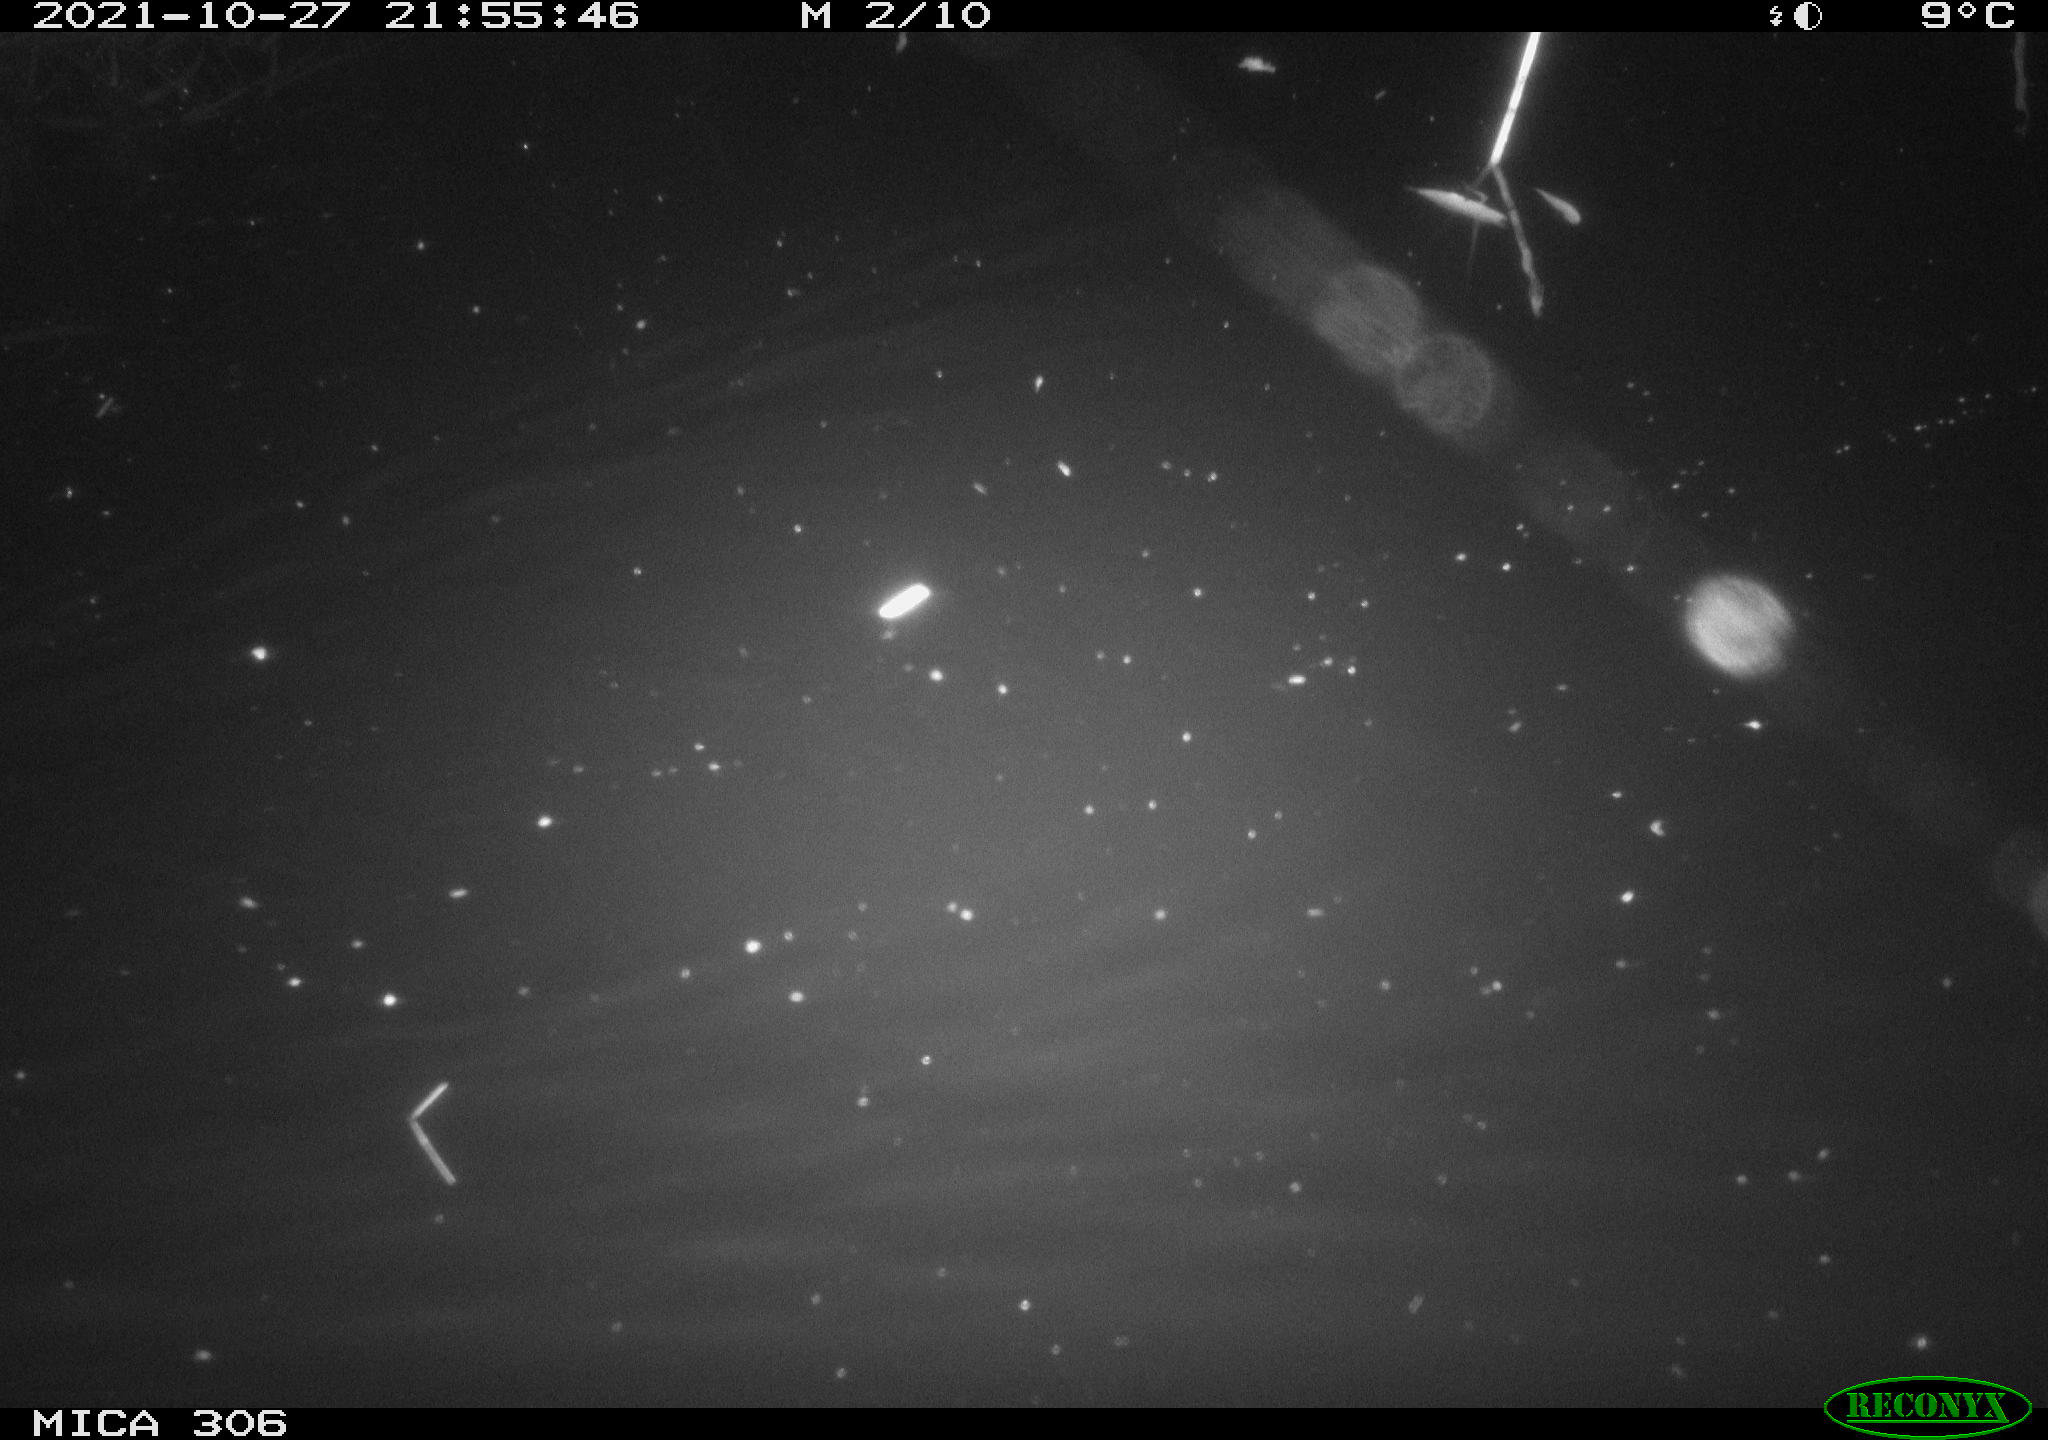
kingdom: Animalia
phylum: Chordata
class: Mammalia
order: Rodentia
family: Cricetidae
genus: Ondatra
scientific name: Ondatra zibethicus
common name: Muskrat
